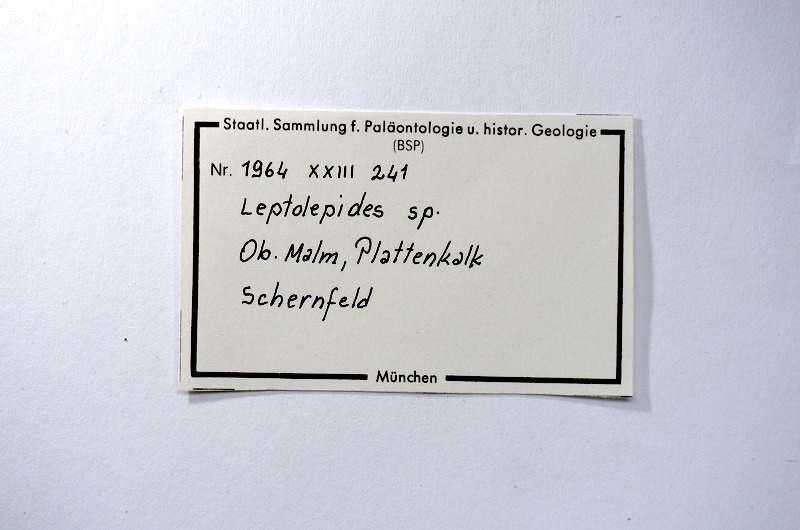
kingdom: Animalia
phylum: Chordata
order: Salmoniformes
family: Orthogonikleithridae
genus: Leptolepides
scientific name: Leptolepides
